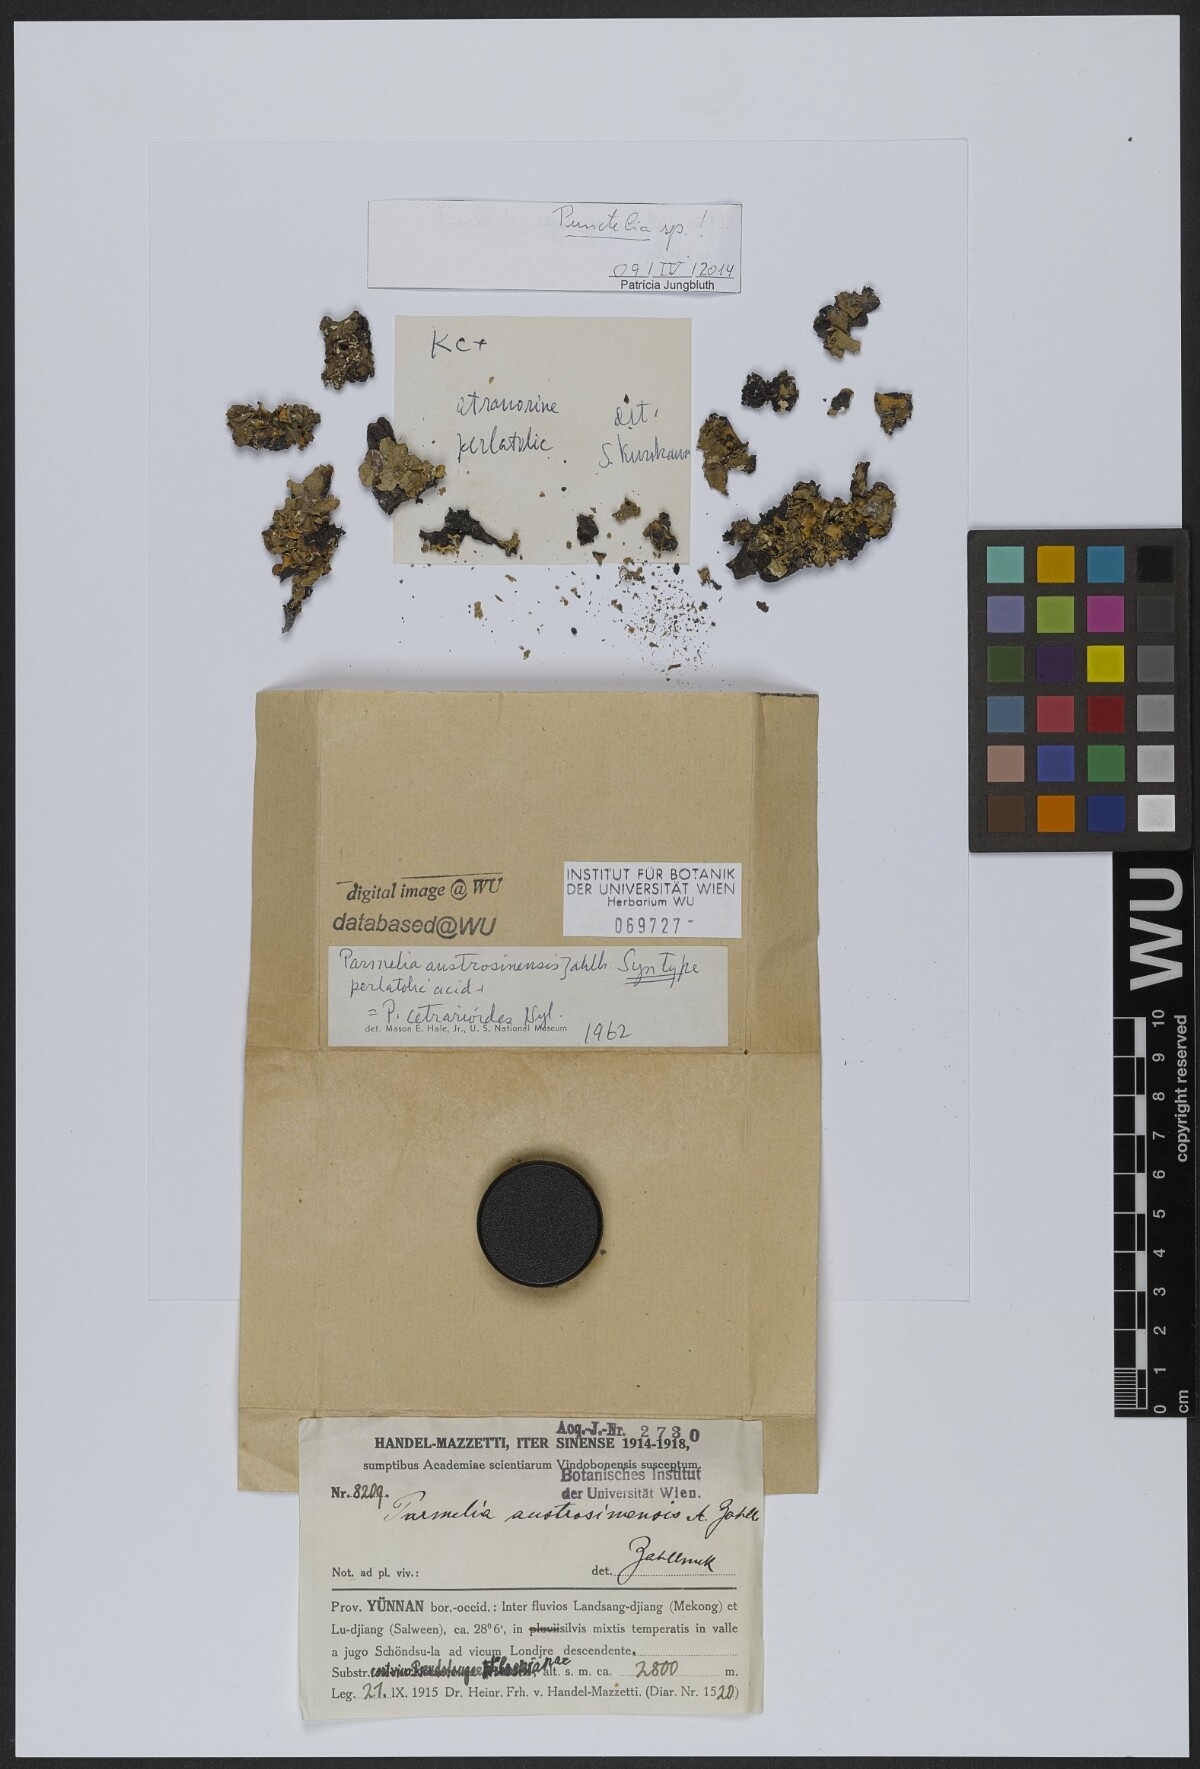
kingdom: Fungi
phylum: Ascomycota
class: Lecanoromycetes
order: Lecanorales
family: Parmeliaceae
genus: Parmotrema
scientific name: Parmotrema austrosinense
